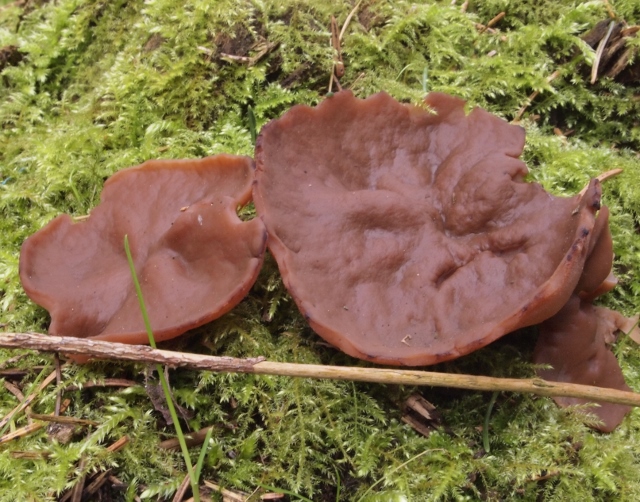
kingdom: Fungi
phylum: Ascomycota
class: Pezizomycetes
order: Pezizales
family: Discinaceae
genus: Discina
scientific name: Discina ancilis
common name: udbredt stenmorkel
